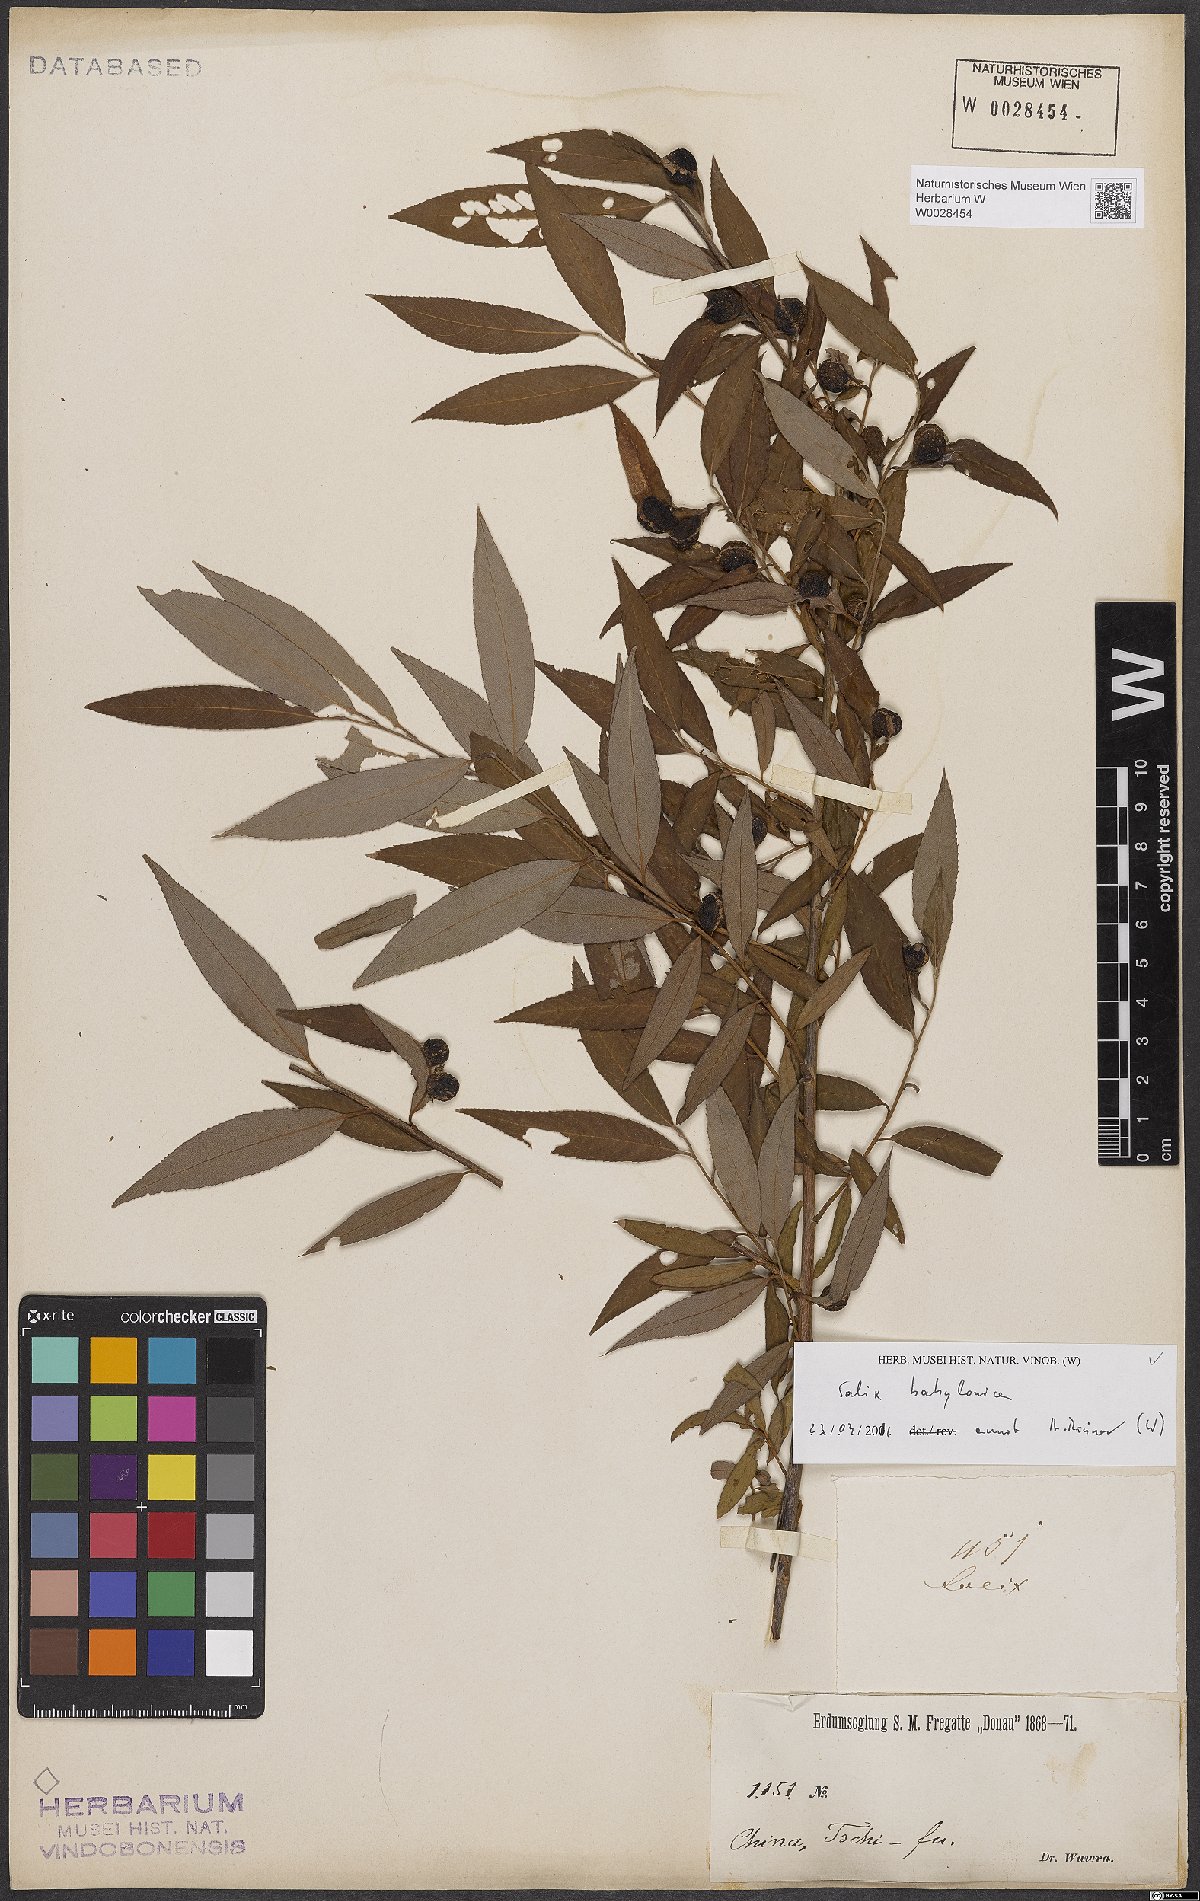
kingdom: Plantae
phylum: Tracheophyta
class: Magnoliopsida
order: Malpighiales
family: Salicaceae
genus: Salix
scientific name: Salix babylonica
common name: Weeping willow
